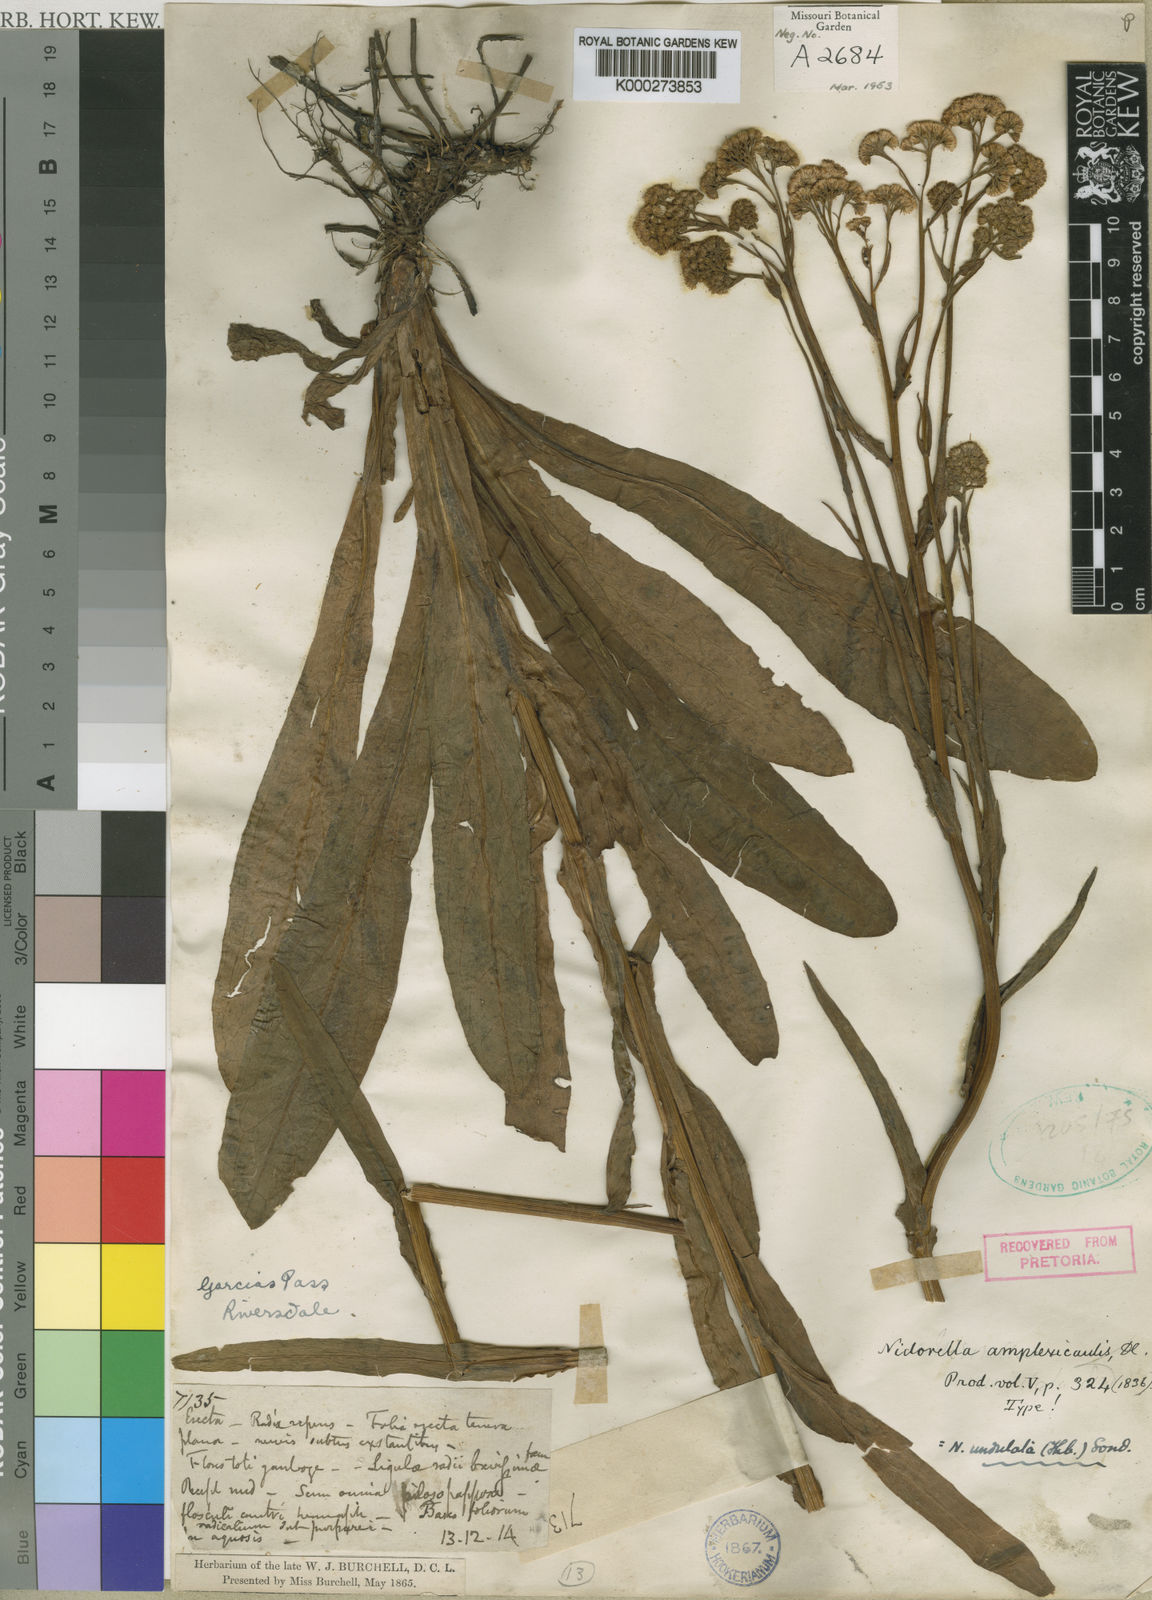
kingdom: Plantae
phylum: Tracheophyta
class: Magnoliopsida
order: Asterales
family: Asteraceae
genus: Nidorella
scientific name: Nidorella
